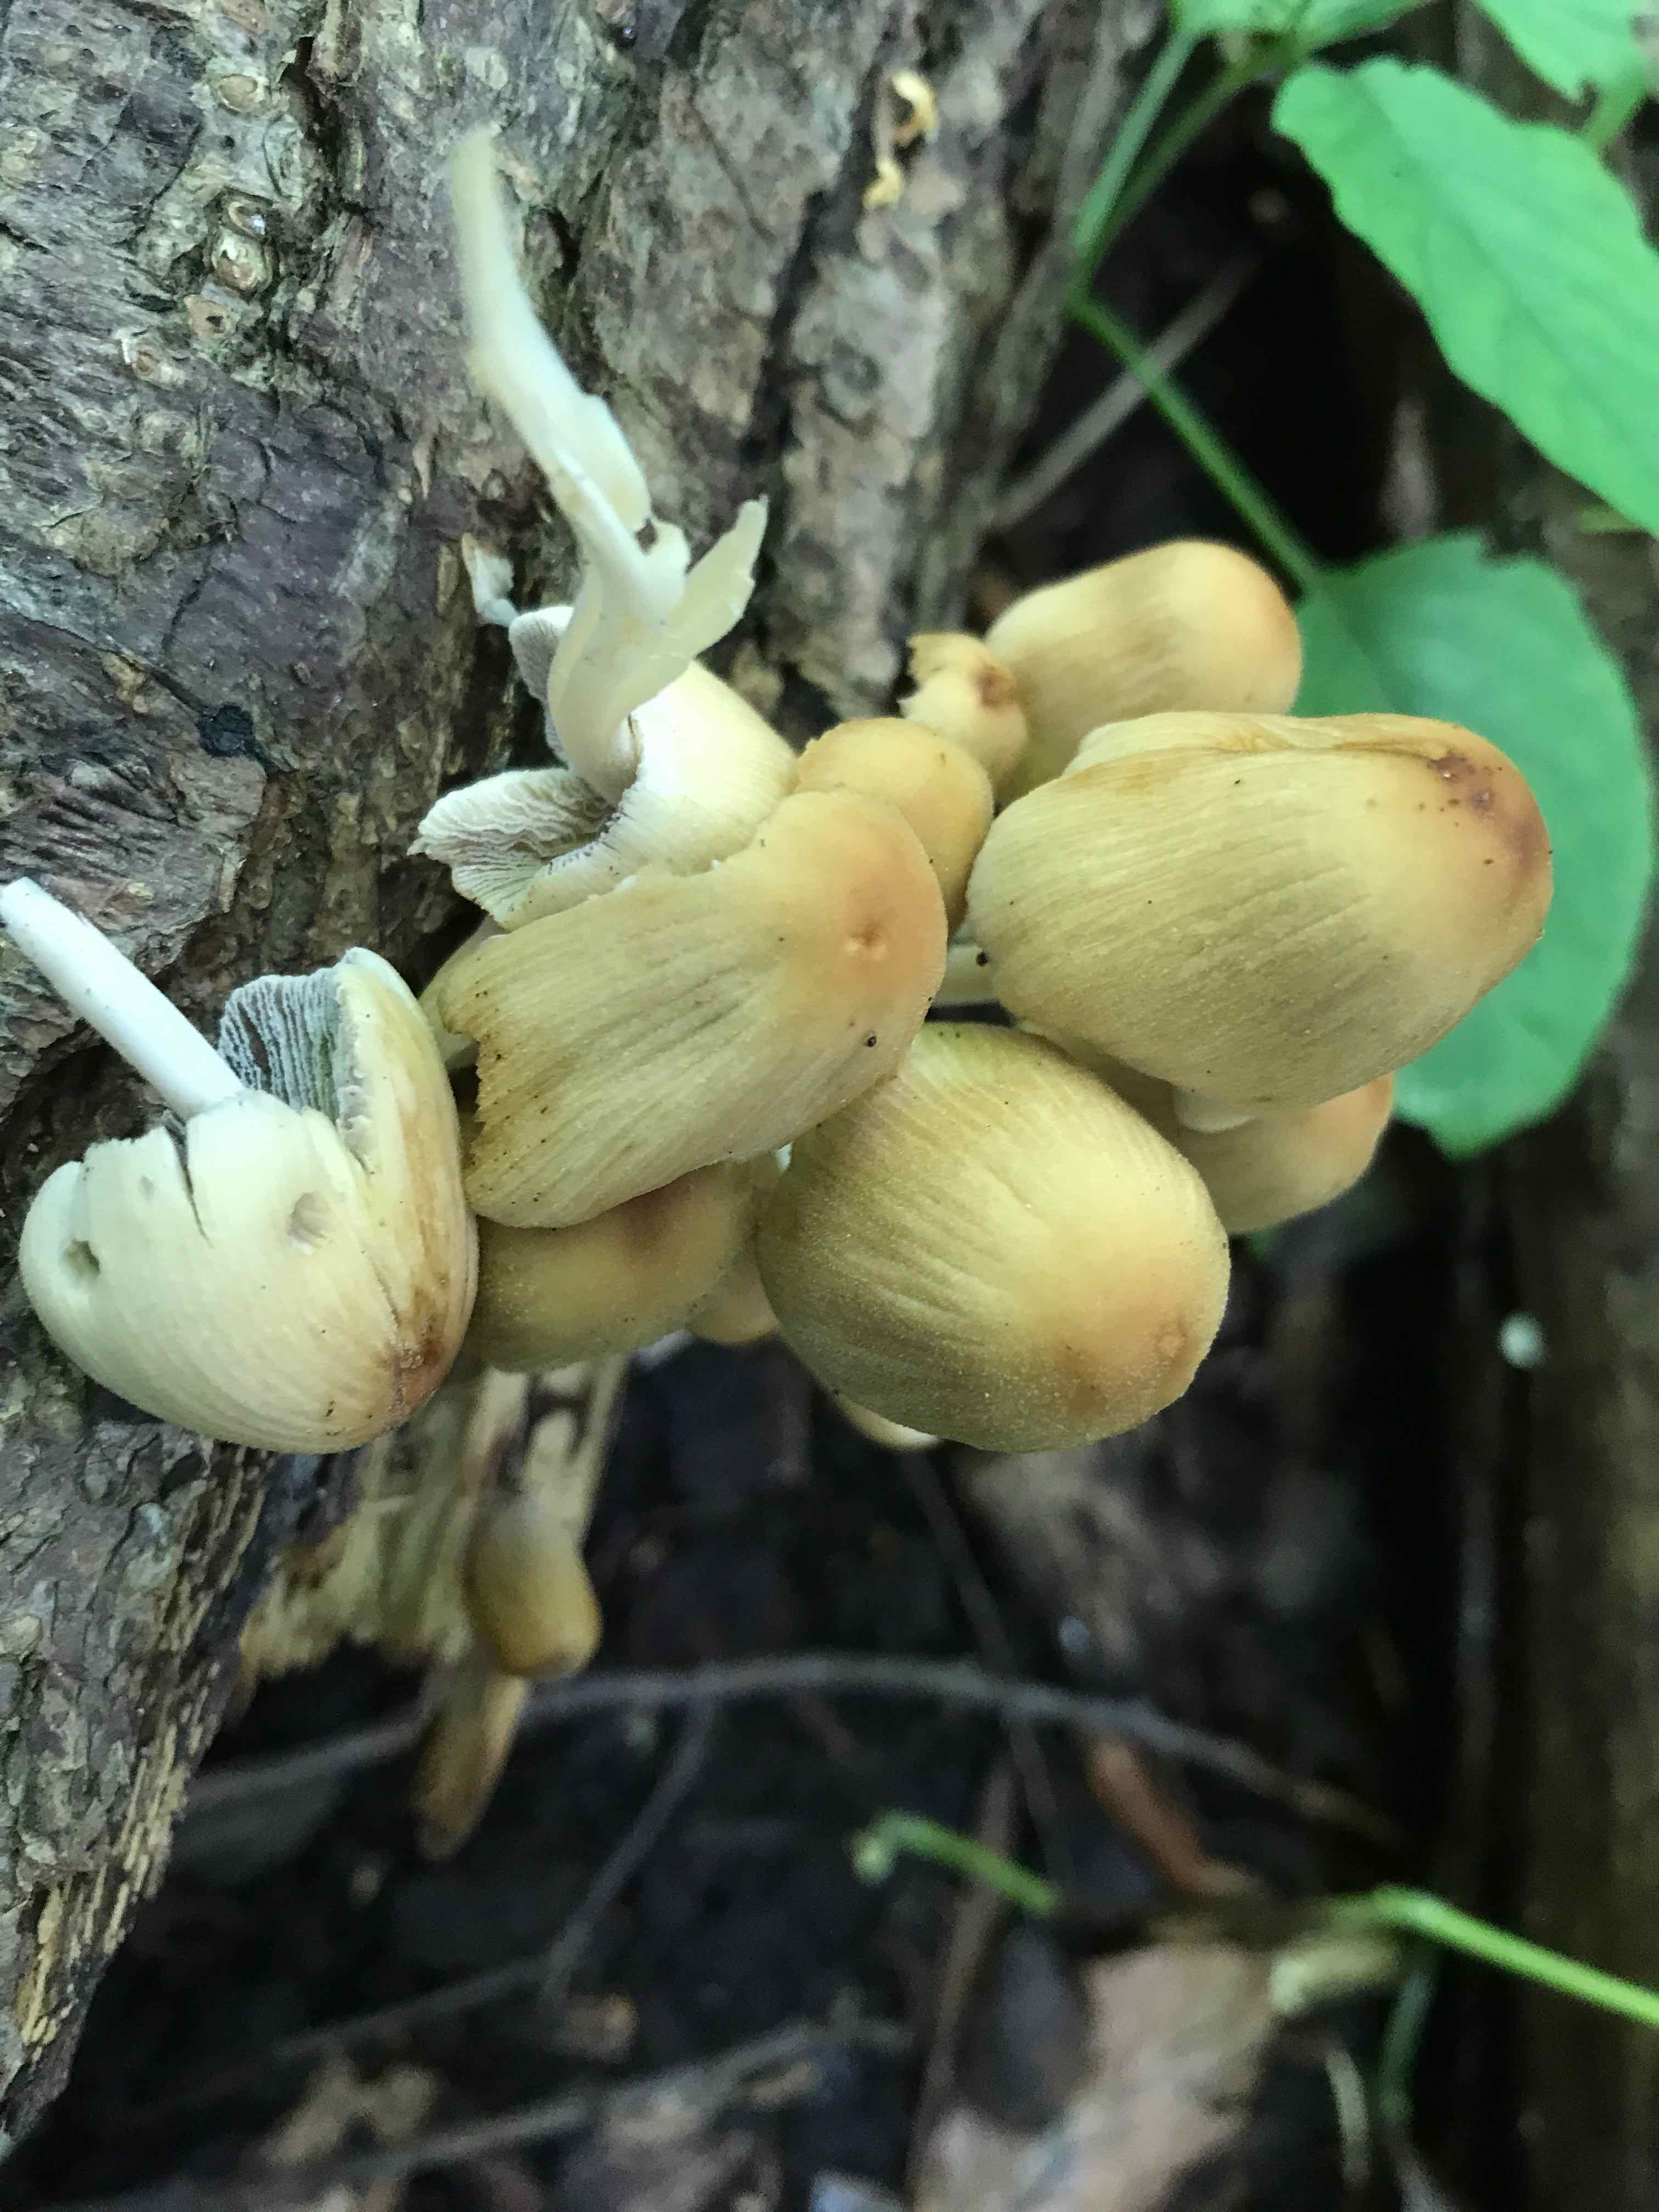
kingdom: Fungi
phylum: Basidiomycota
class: Agaricomycetes
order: Agaricales
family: Psathyrellaceae
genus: Coprinellus
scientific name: Coprinellus micaceus
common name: glimmer-blækhat
